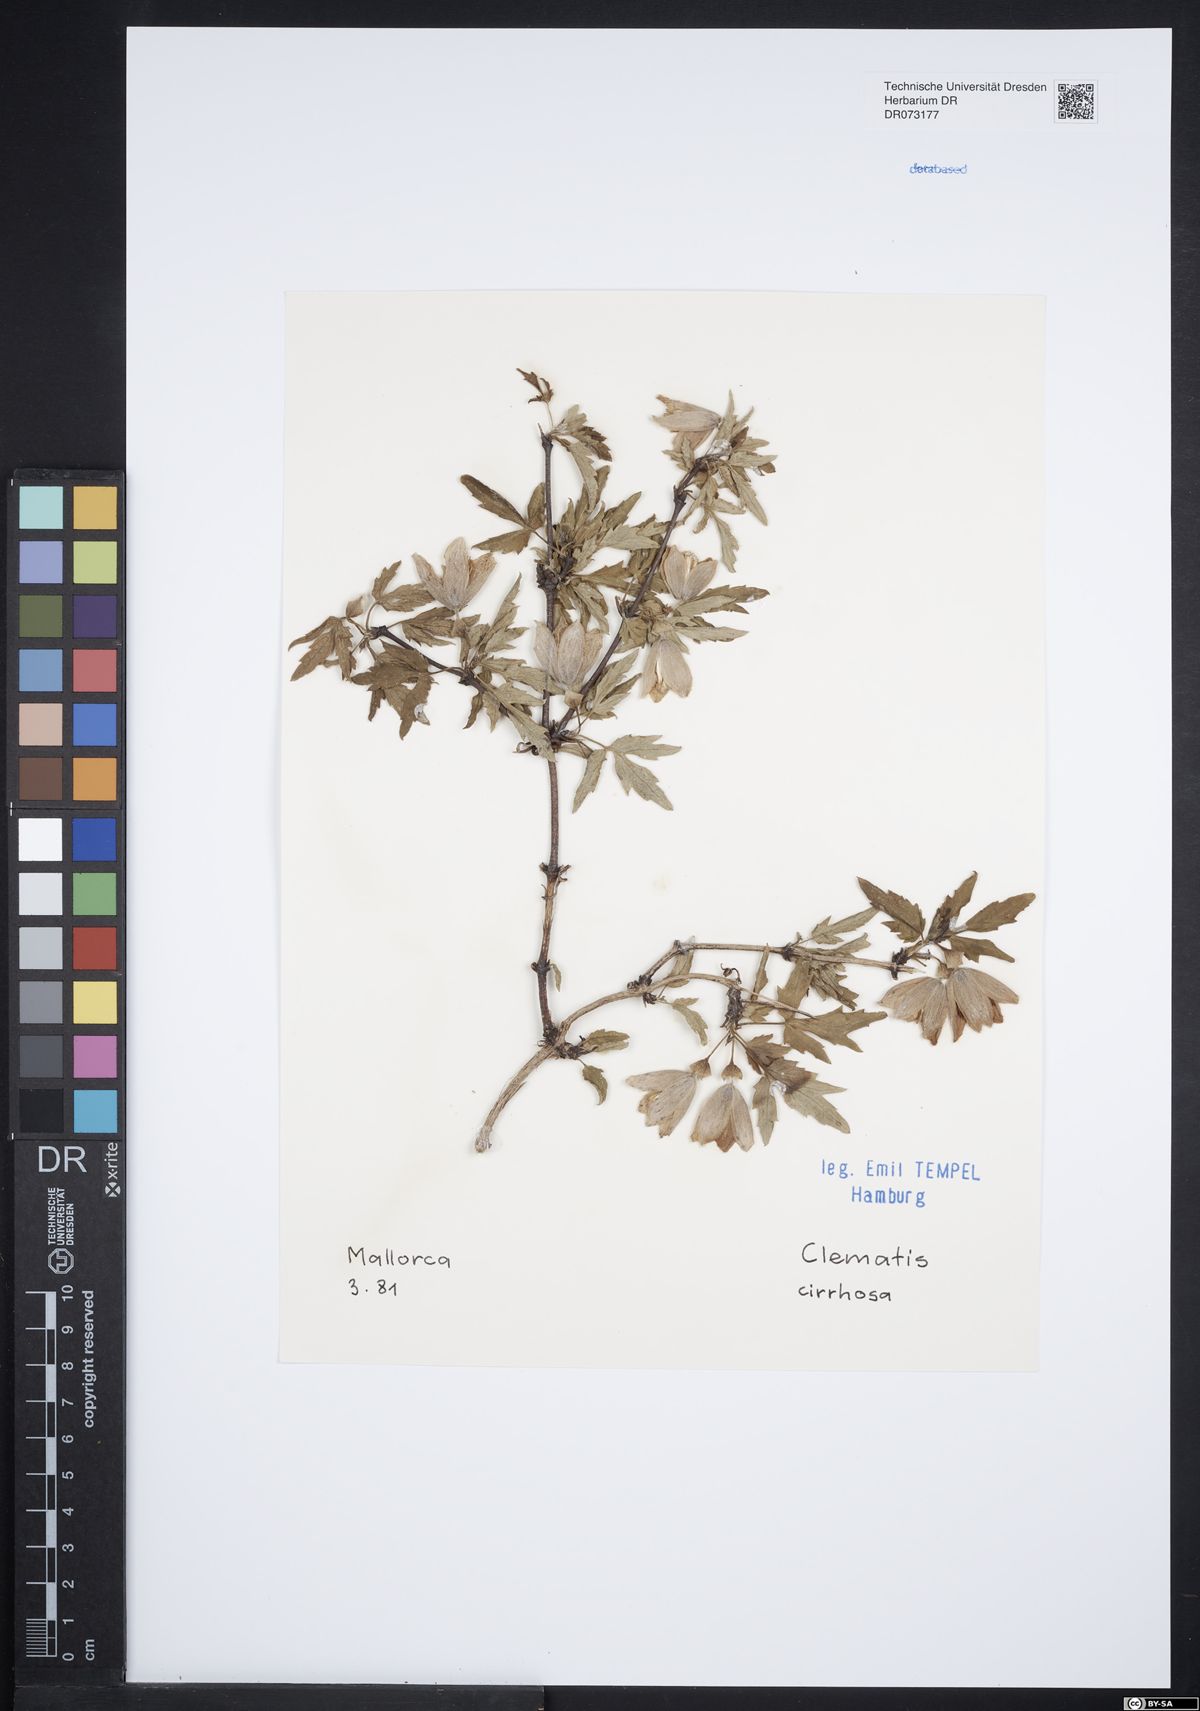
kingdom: Plantae
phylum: Tracheophyta
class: Magnoliopsida
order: Ranunculales
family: Ranunculaceae
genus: Clematis
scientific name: Clematis cirrhosa
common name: Early virgin's-bower
